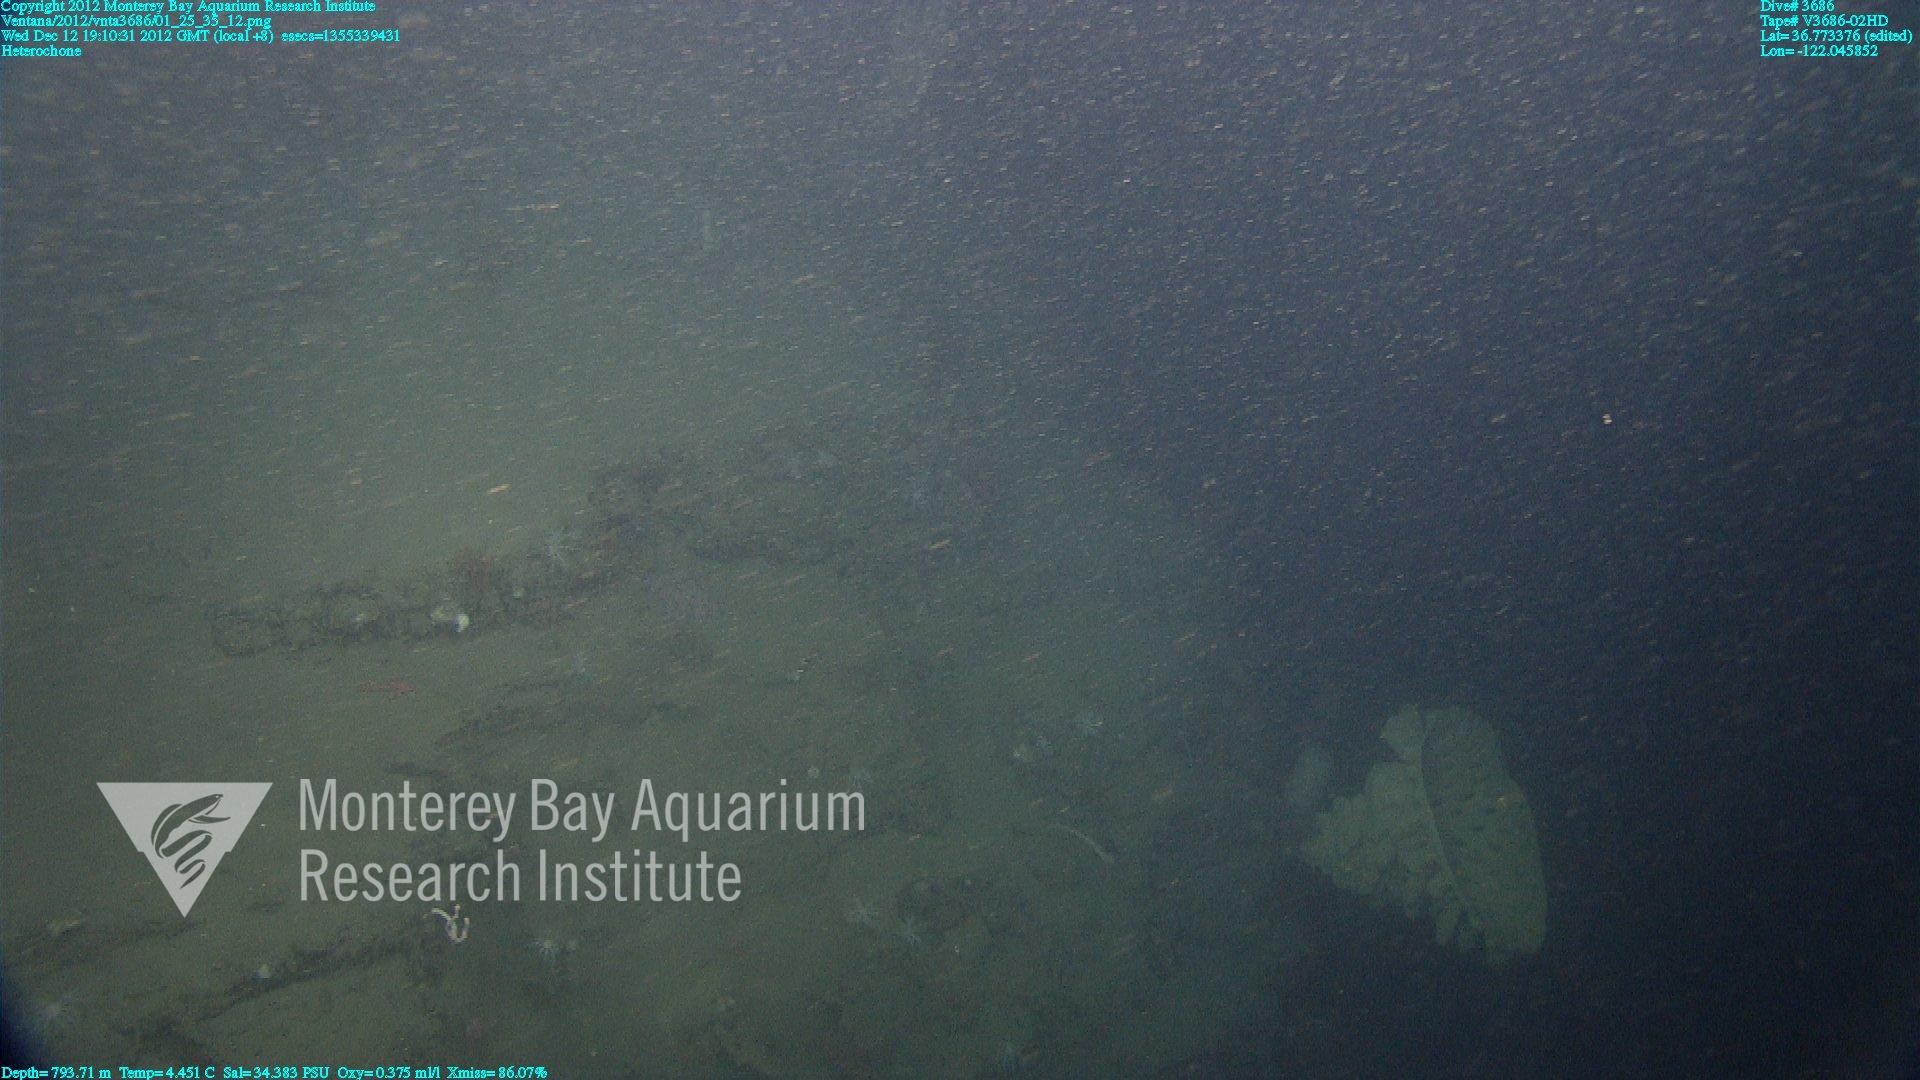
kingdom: Animalia
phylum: Porifera
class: Hexactinellida
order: Sceptrulophora
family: Aphrocallistidae
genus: Heterochone
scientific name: Heterochone
